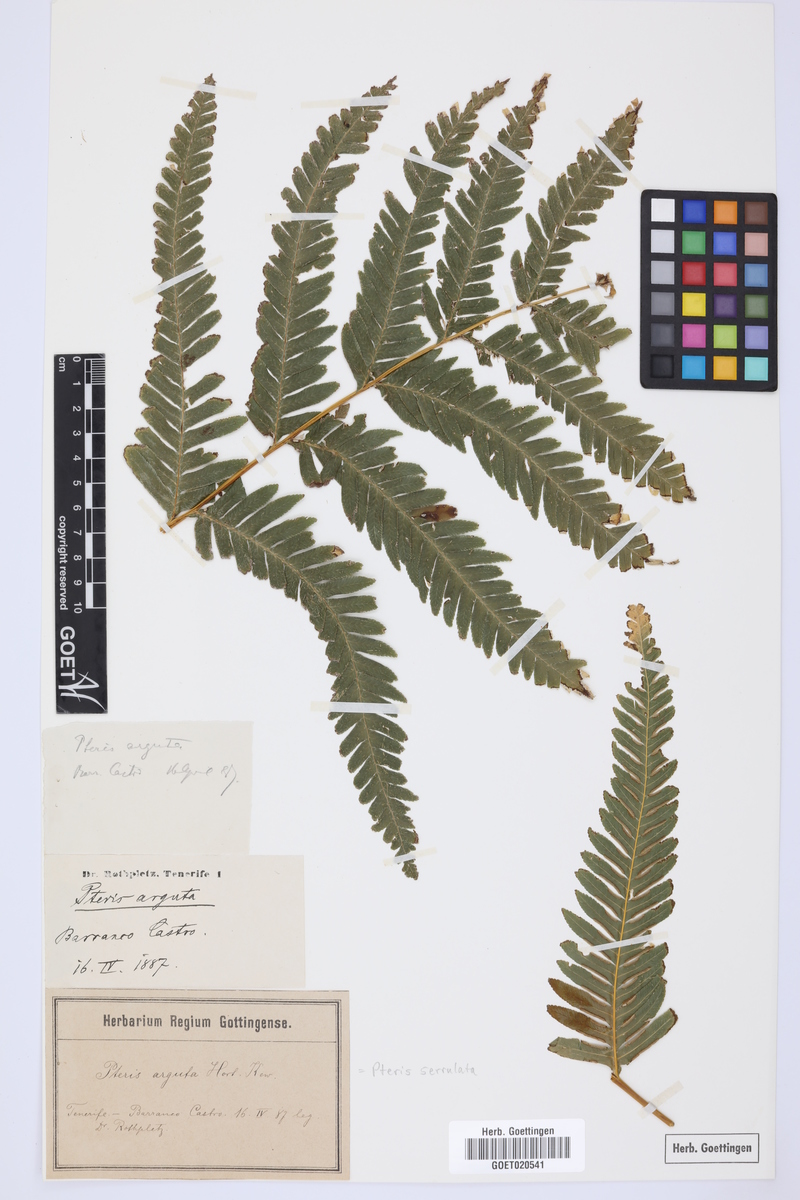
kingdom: Plantae
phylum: Tracheophyta
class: Polypodiopsida
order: Polypodiales
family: Pteridaceae
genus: Pteris
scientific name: Pteris dentata
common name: Toothed brake
